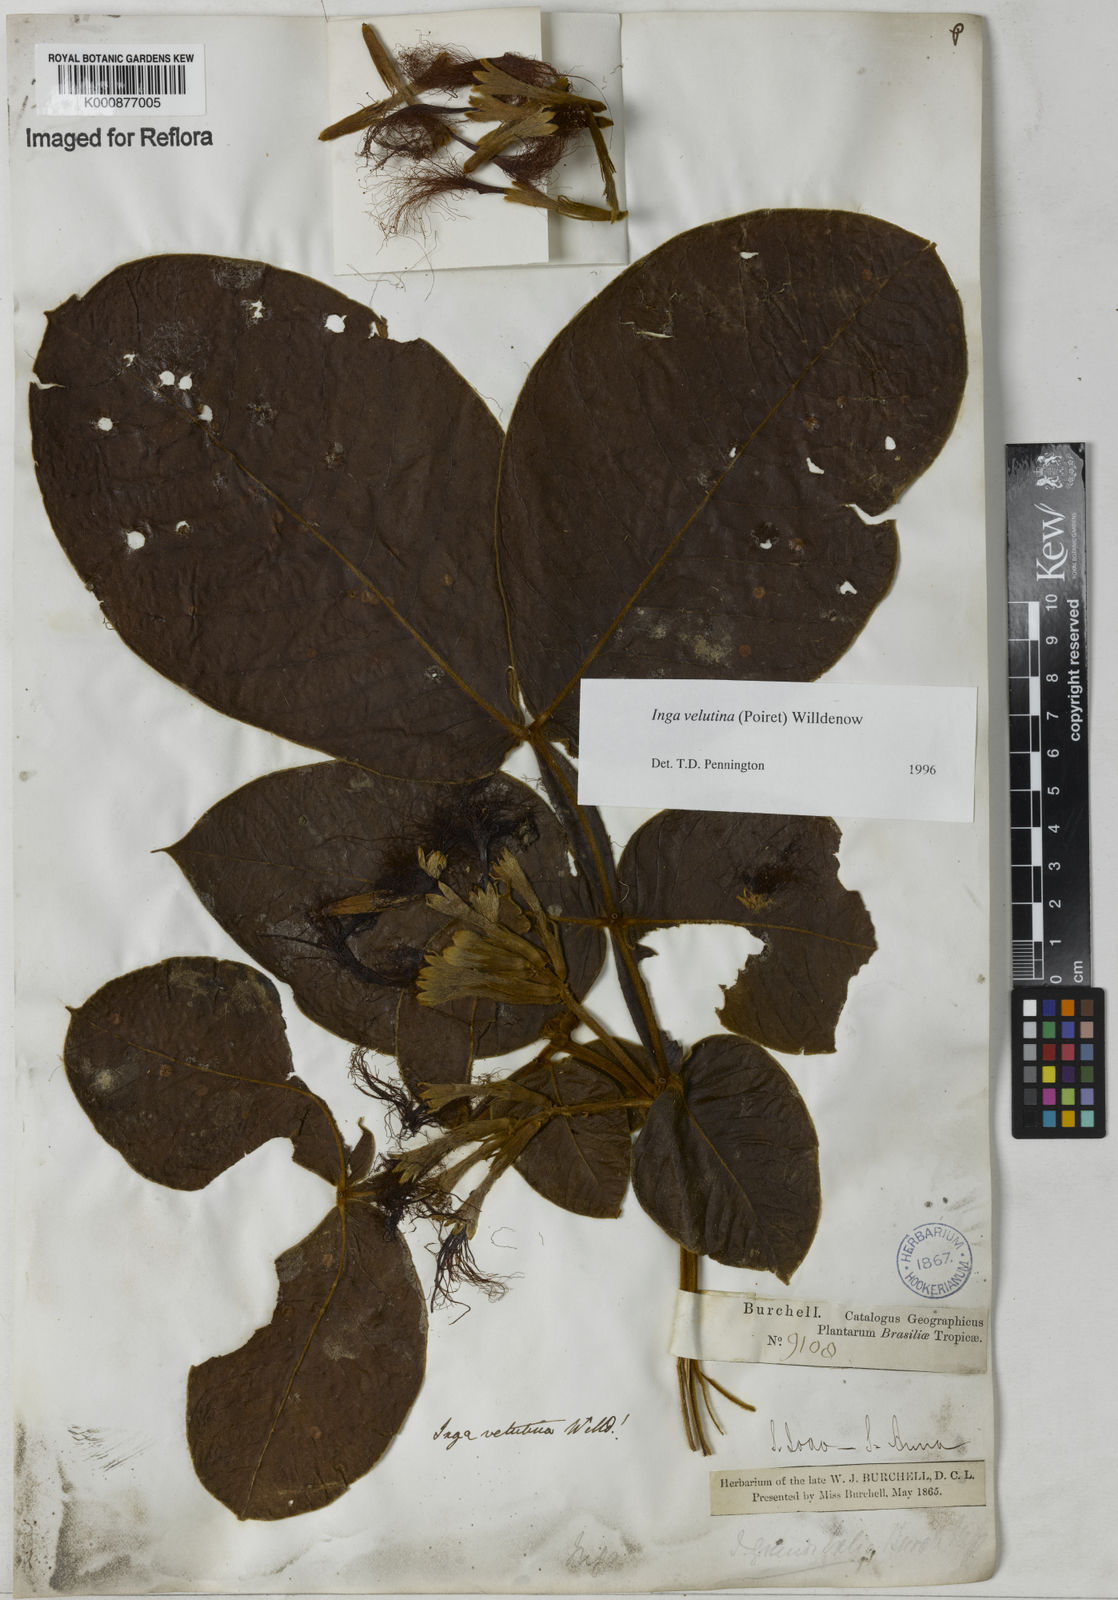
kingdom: Plantae
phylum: Tracheophyta
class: Magnoliopsida
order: Fabales
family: Fabaceae
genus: Inga
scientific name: Inga velutina
